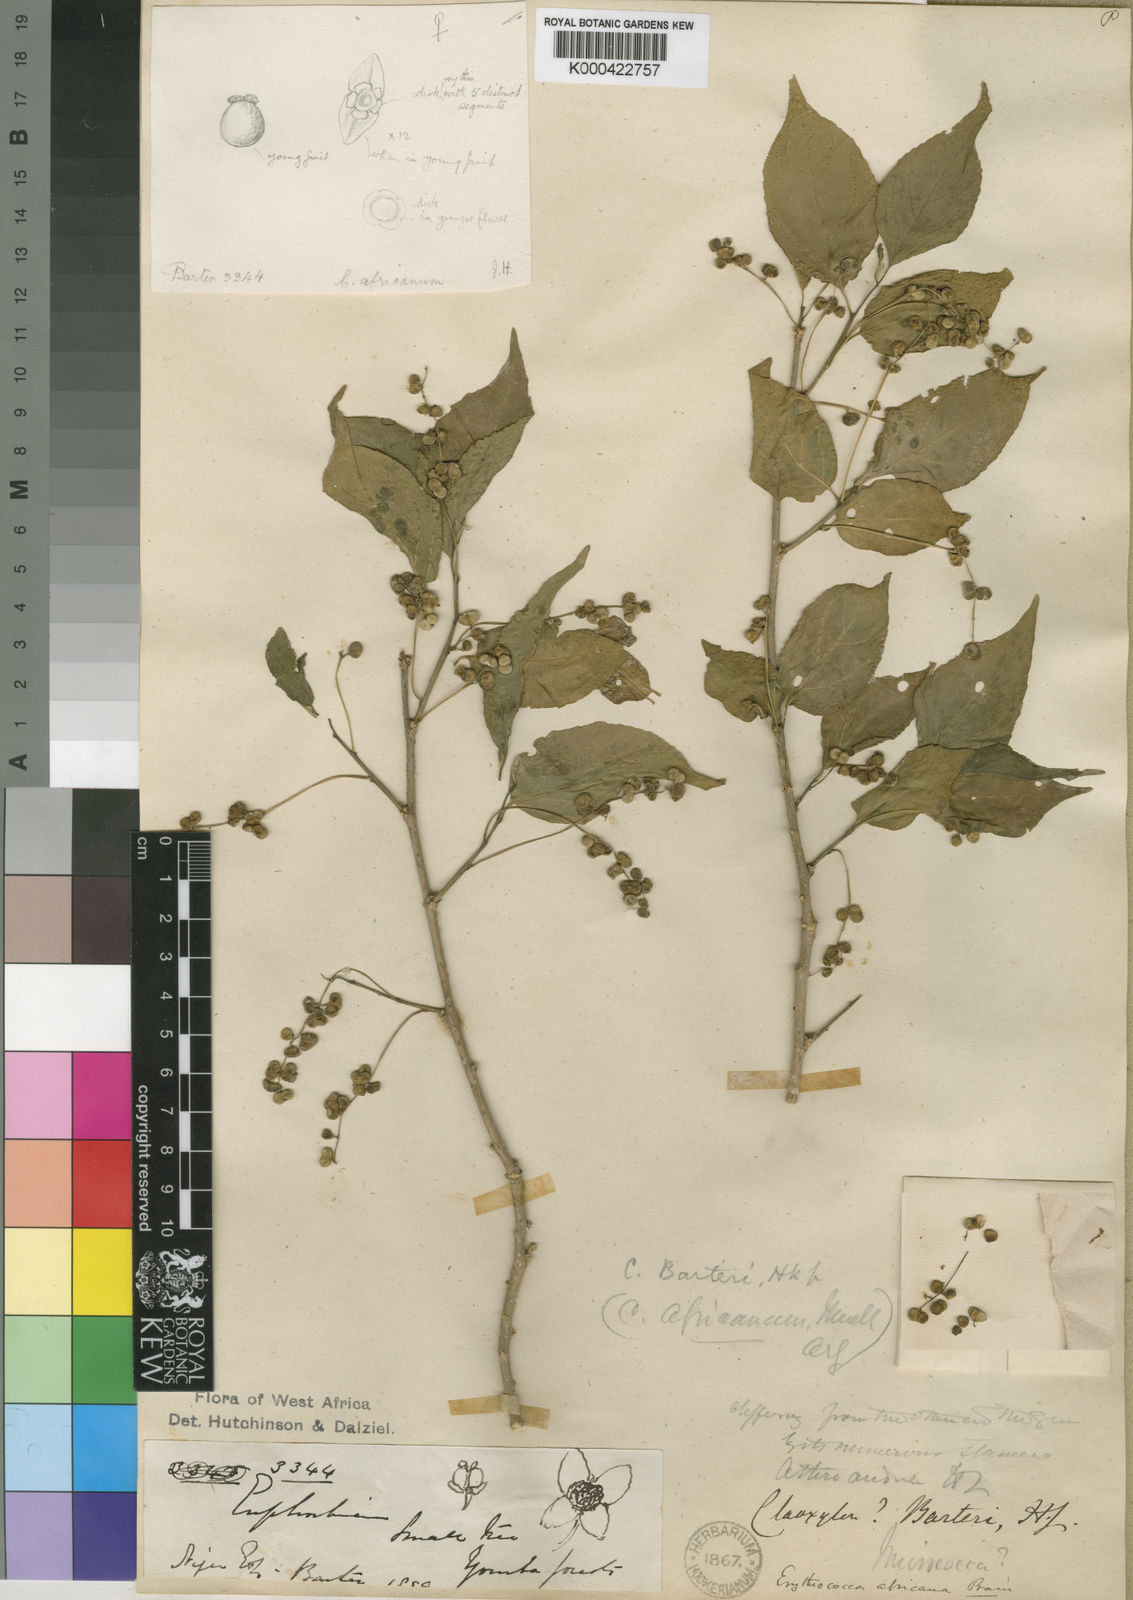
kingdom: Plantae
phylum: Tracheophyta
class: Magnoliopsida
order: Malpighiales
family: Euphorbiaceae
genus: Erythrococca
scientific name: Erythrococca africana
